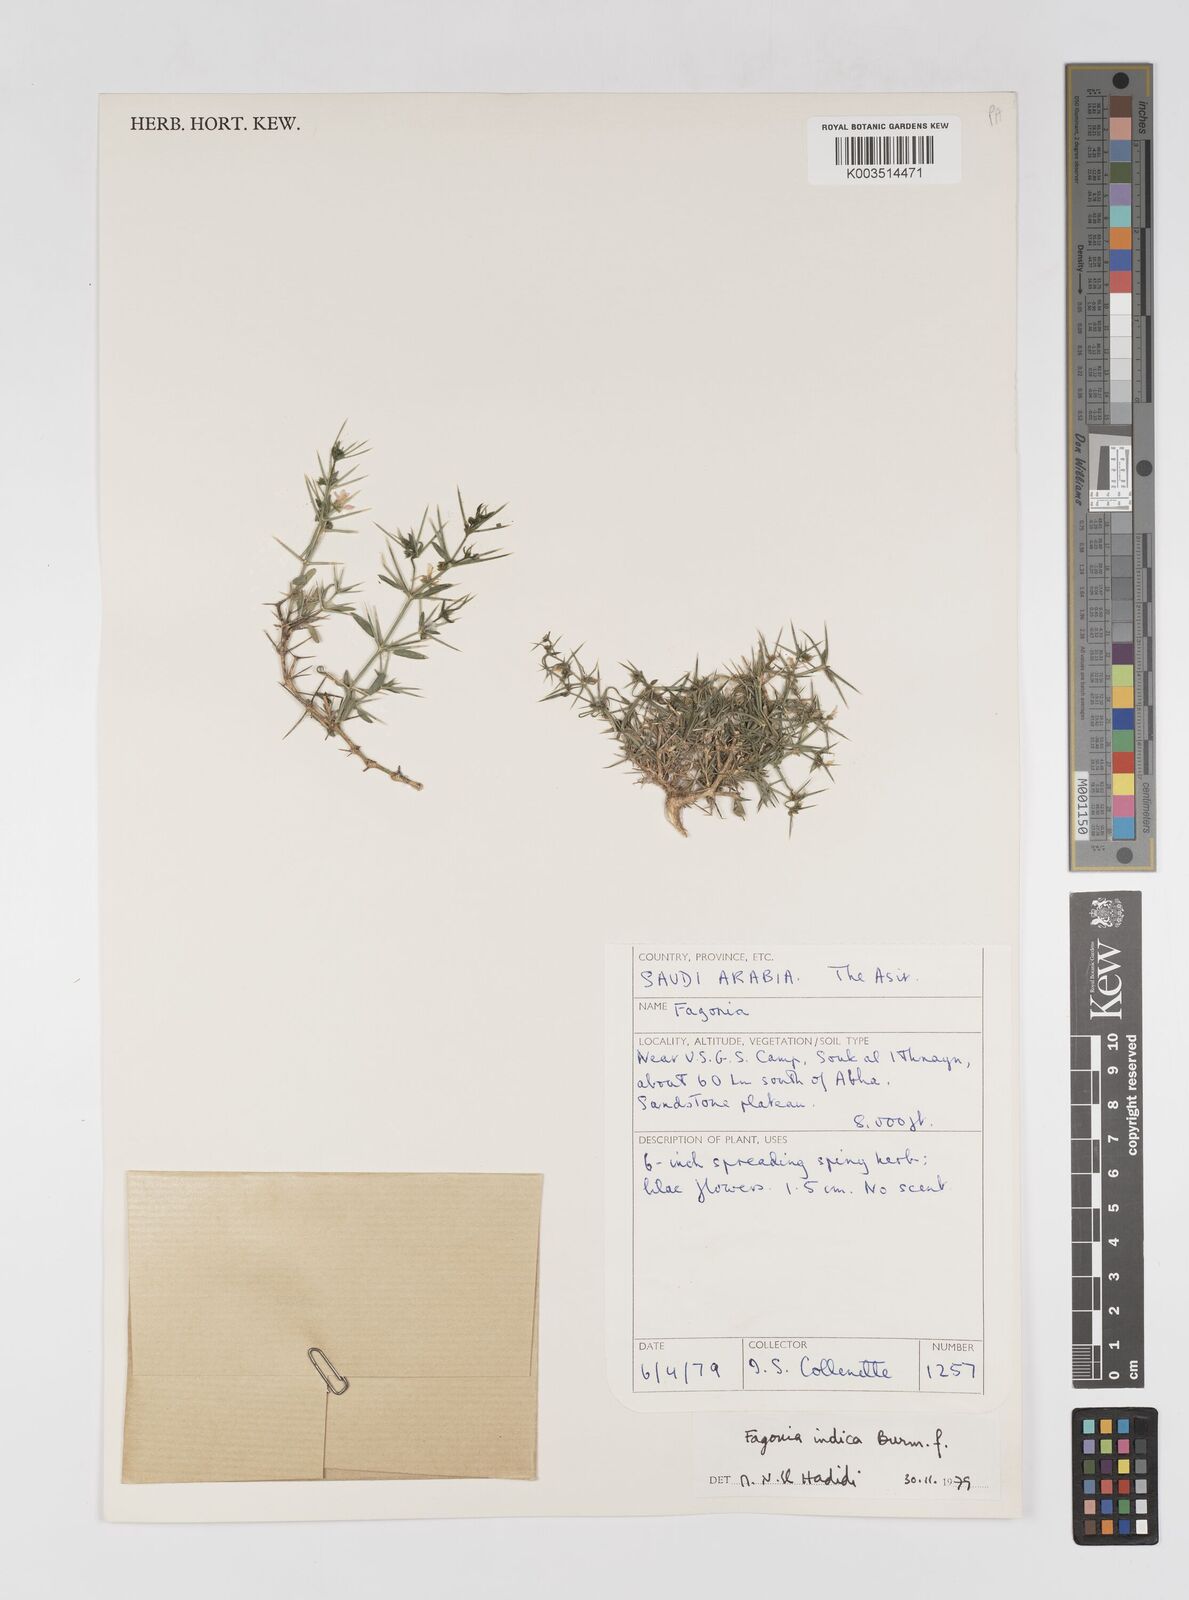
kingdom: Plantae
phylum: Tracheophyta
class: Magnoliopsida
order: Zygophyllales
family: Zygophyllaceae
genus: Fagonia
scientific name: Fagonia indica
